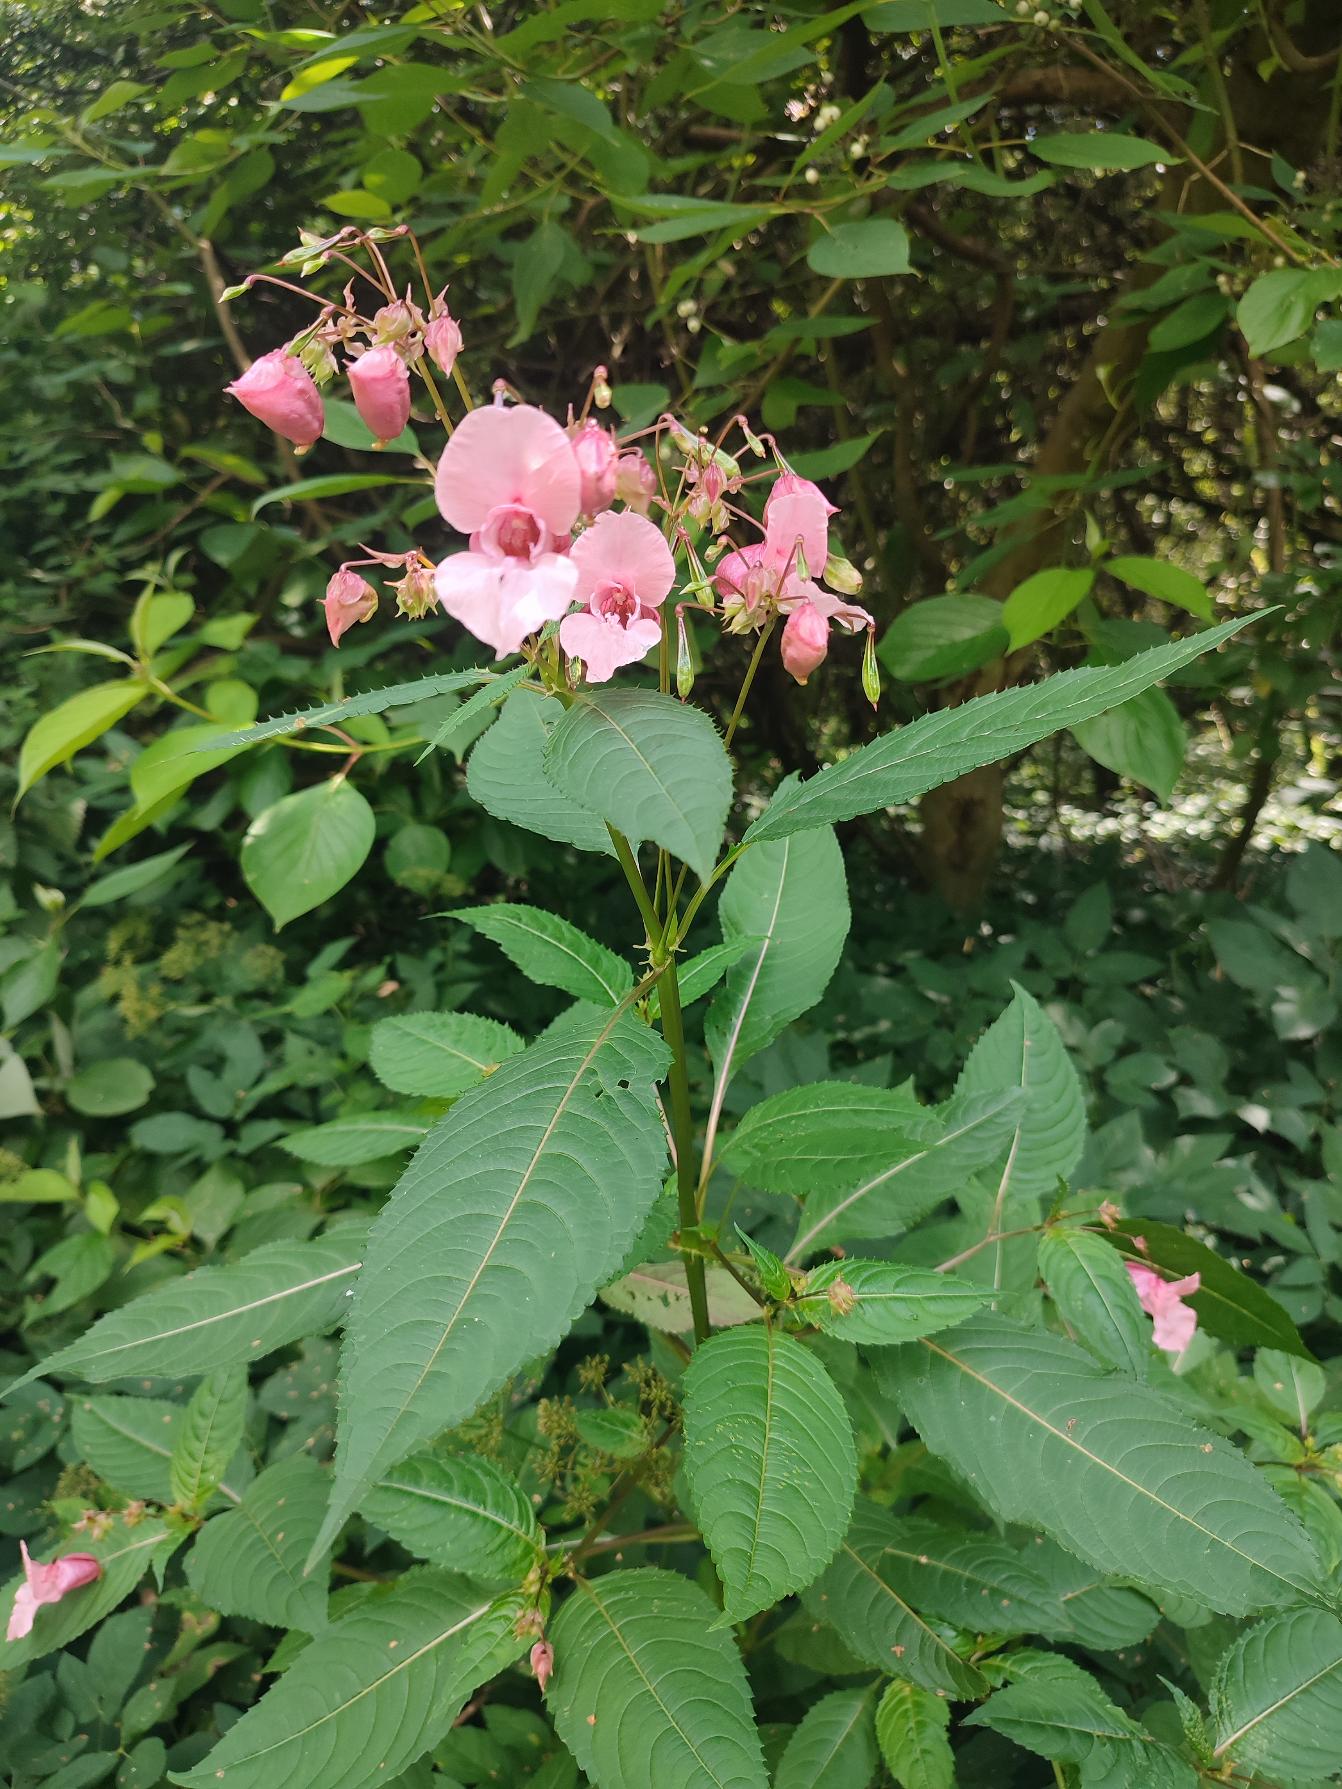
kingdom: Plantae
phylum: Tracheophyta
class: Magnoliopsida
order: Ericales
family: Balsaminaceae
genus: Impatiens
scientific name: Impatiens glandulifera
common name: Kæmpe-balsamin
